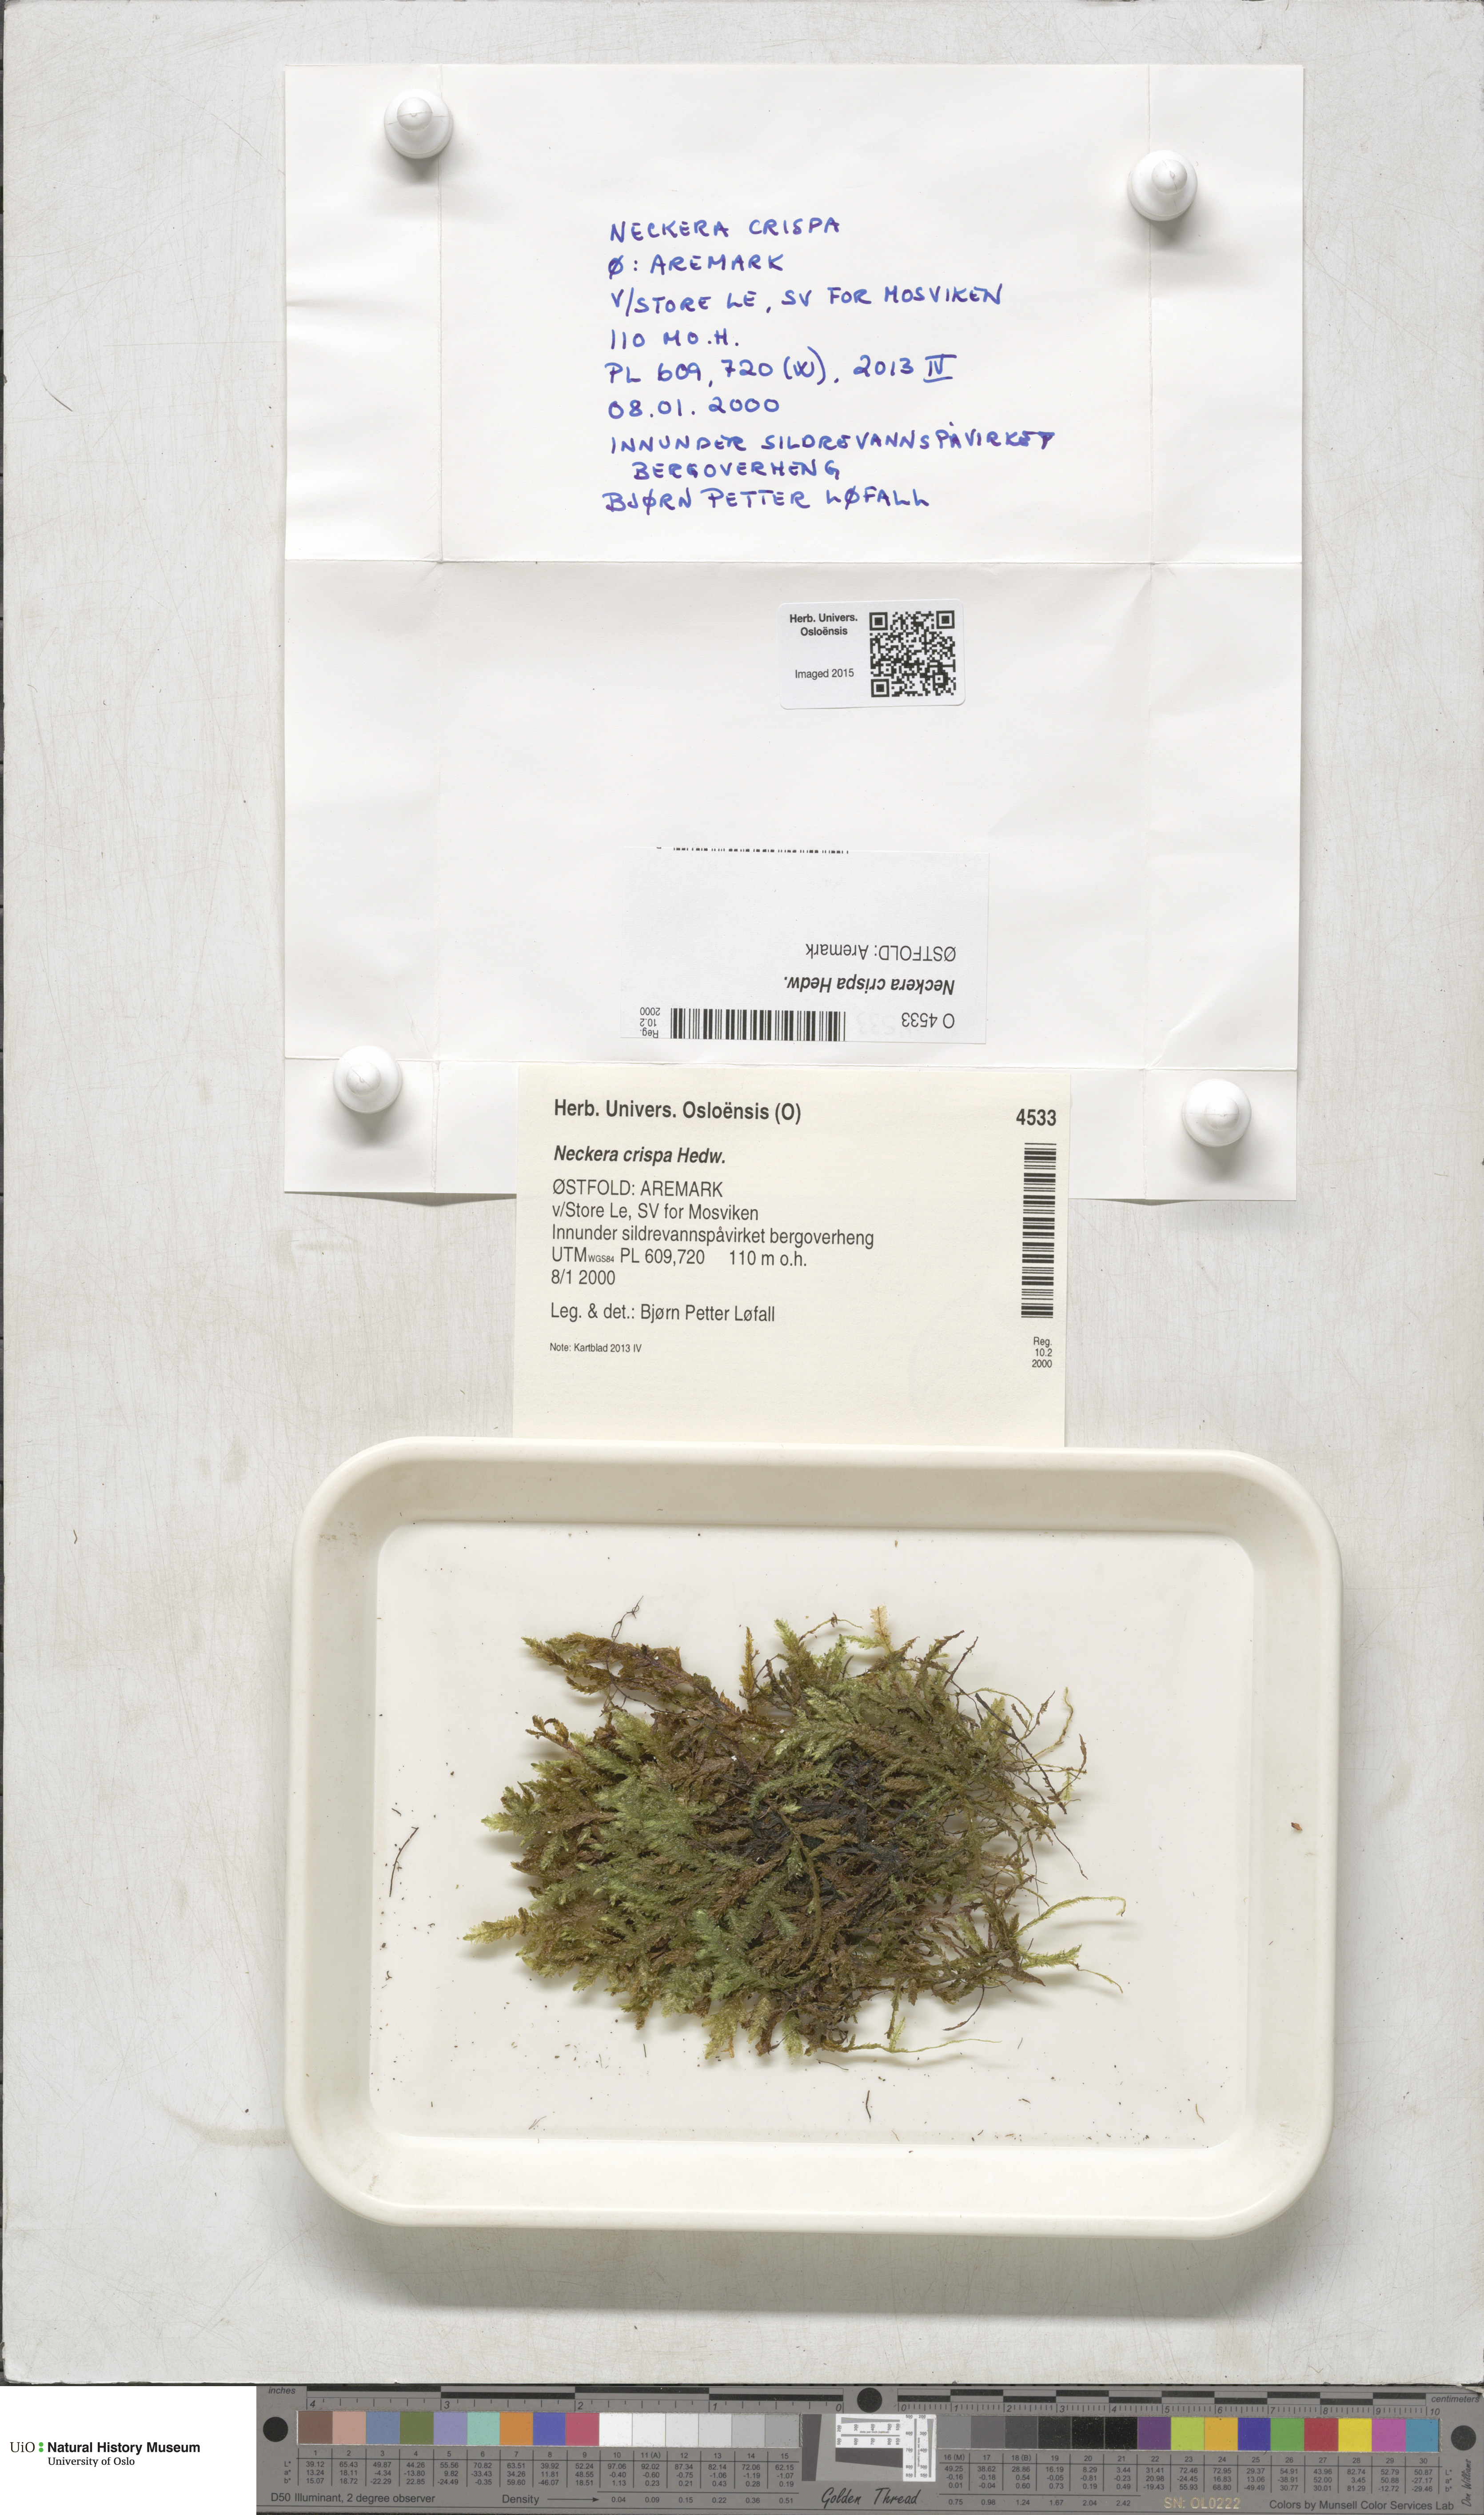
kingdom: Plantae
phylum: Bryophyta
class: Bryopsida
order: Hypnales
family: Neckeraceae
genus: Exsertotheca
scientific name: Exsertotheca crispa
